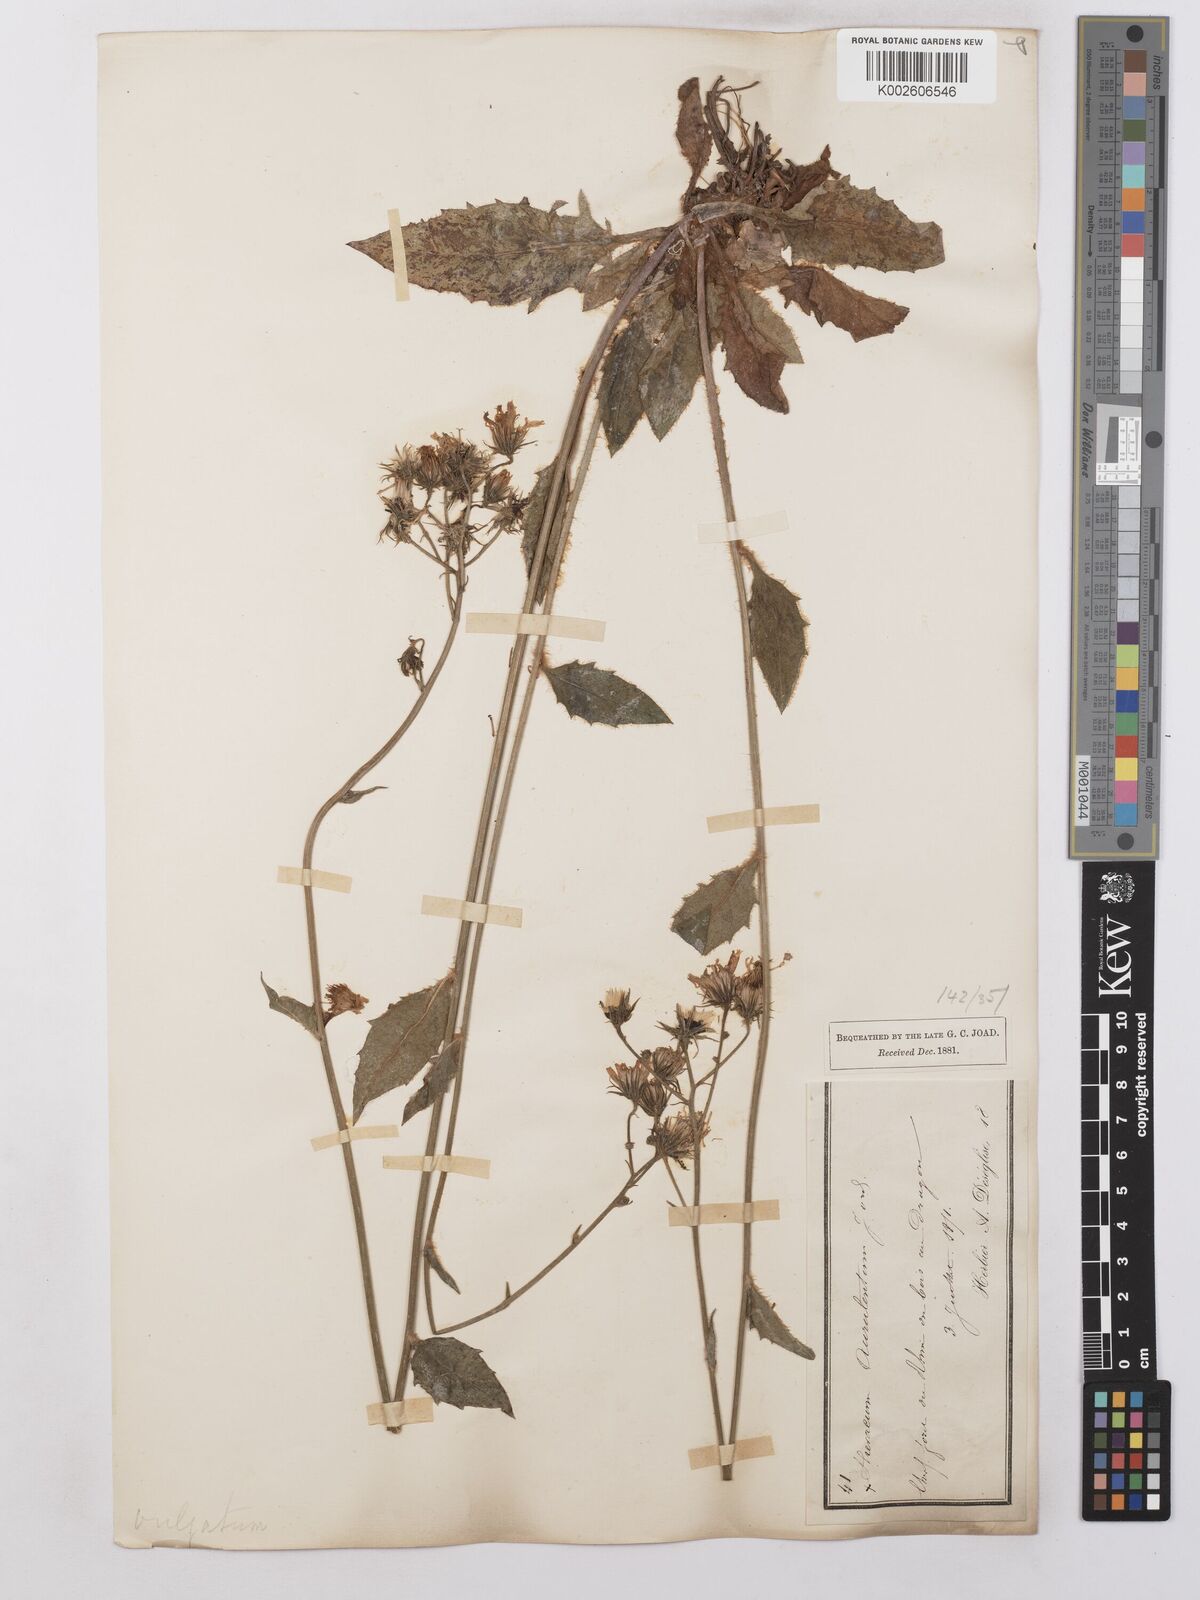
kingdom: Plantae
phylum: Tracheophyta
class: Magnoliopsida
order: Asterales
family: Asteraceae
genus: Hieracium
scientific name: Hieracium lachenalii
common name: Common hawkweed
